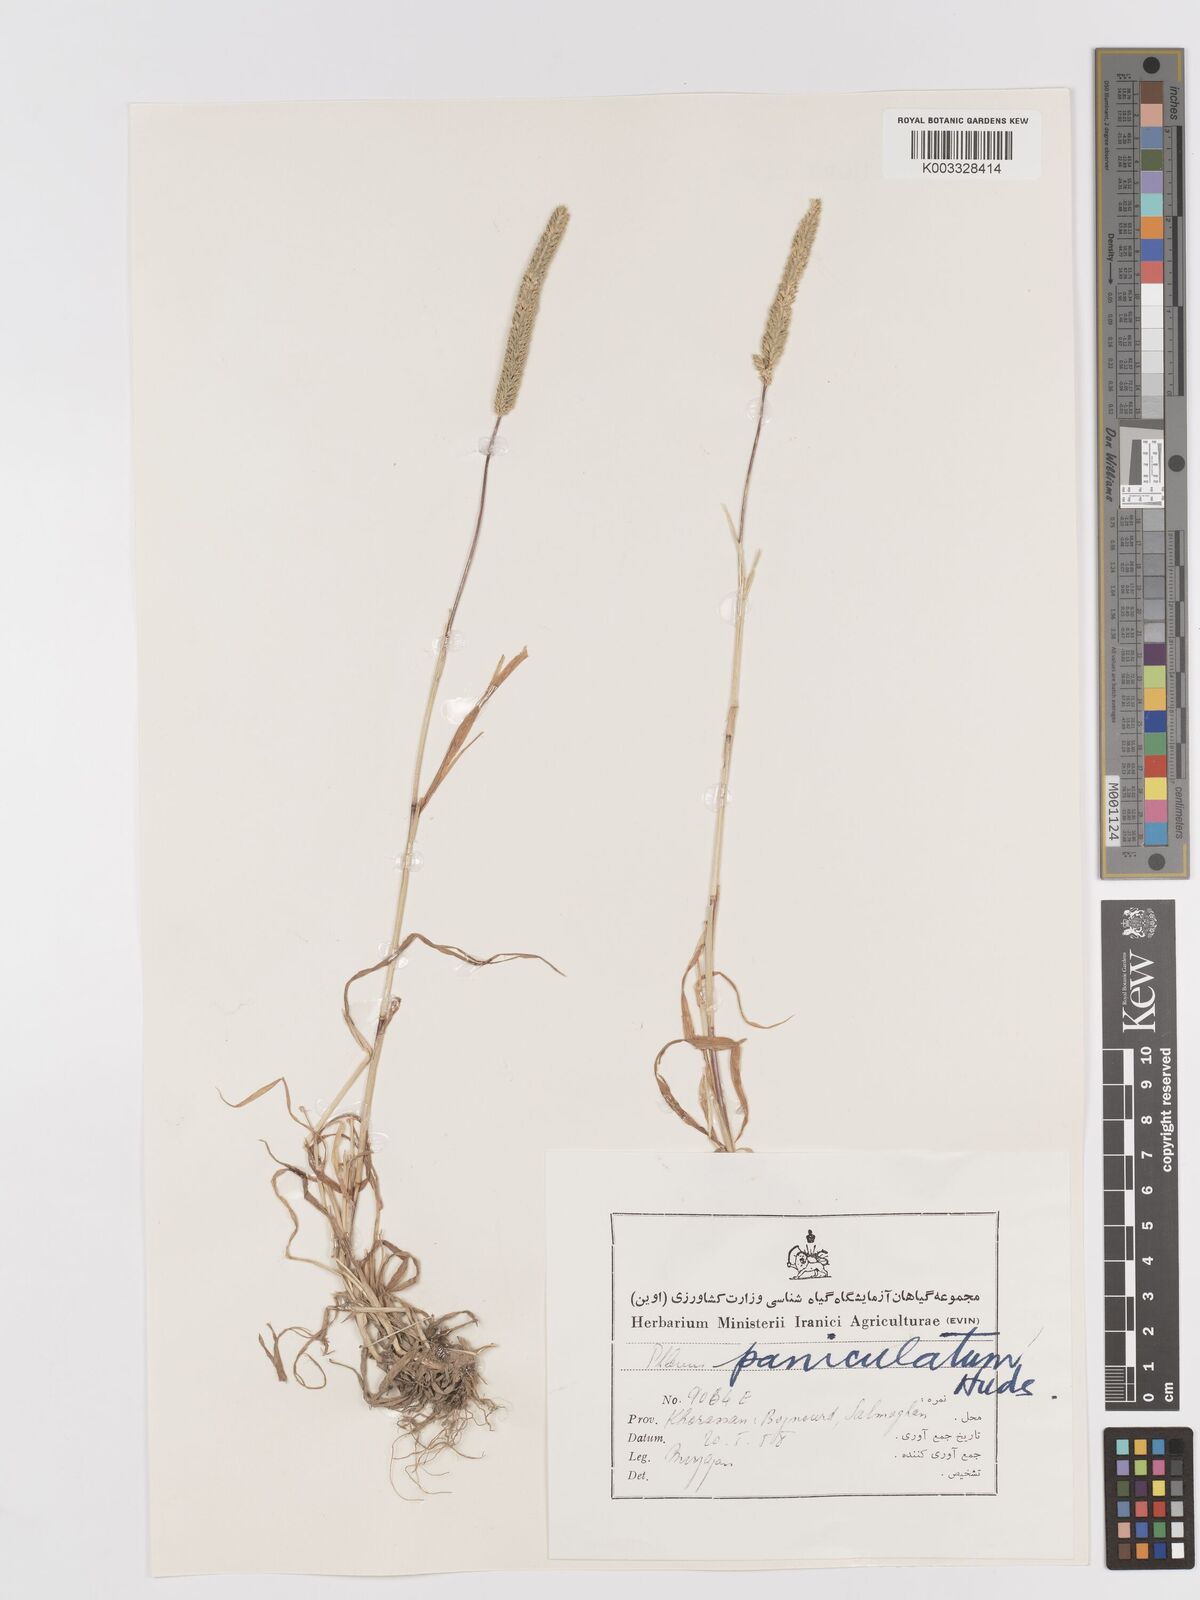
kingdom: Plantae
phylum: Tracheophyta
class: Liliopsida
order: Poales
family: Poaceae
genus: Phleum
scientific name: Phleum paniculatum
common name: British timothy
